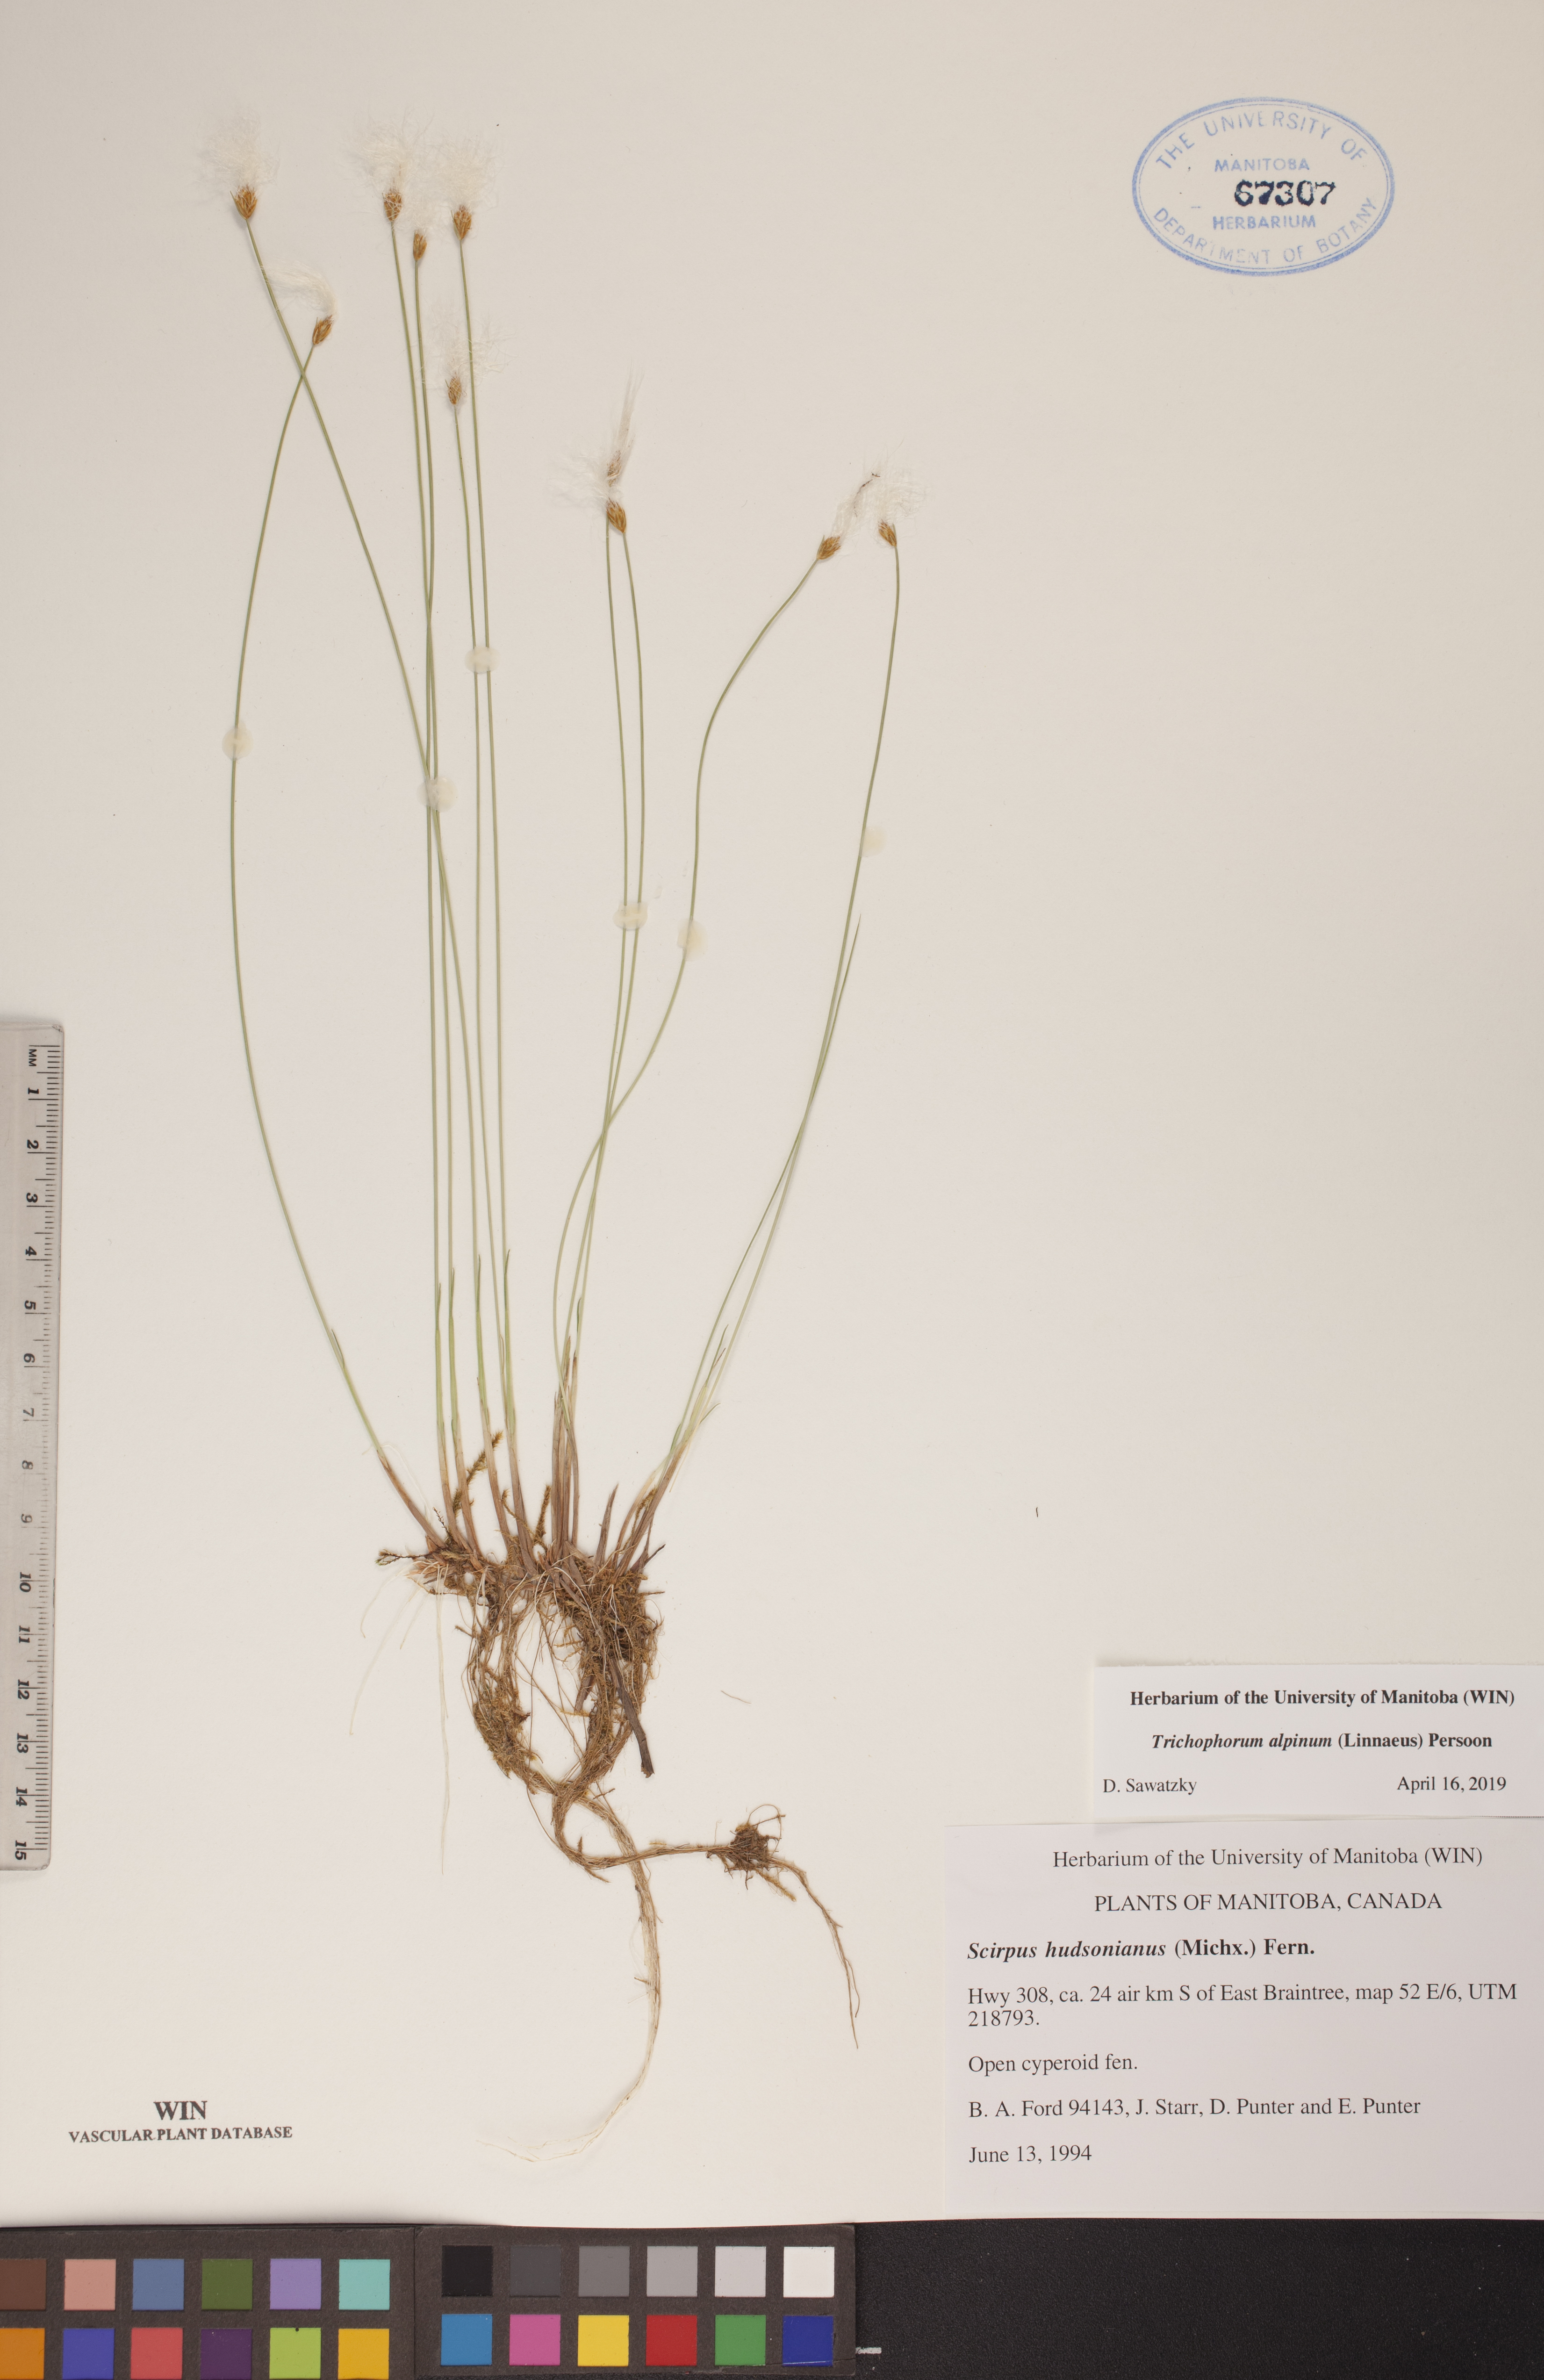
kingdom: Plantae
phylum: Tracheophyta
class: Liliopsida
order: Poales
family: Cyperaceae
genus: Trichophorum
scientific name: Trichophorum alpinum
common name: Alpine bulrush
